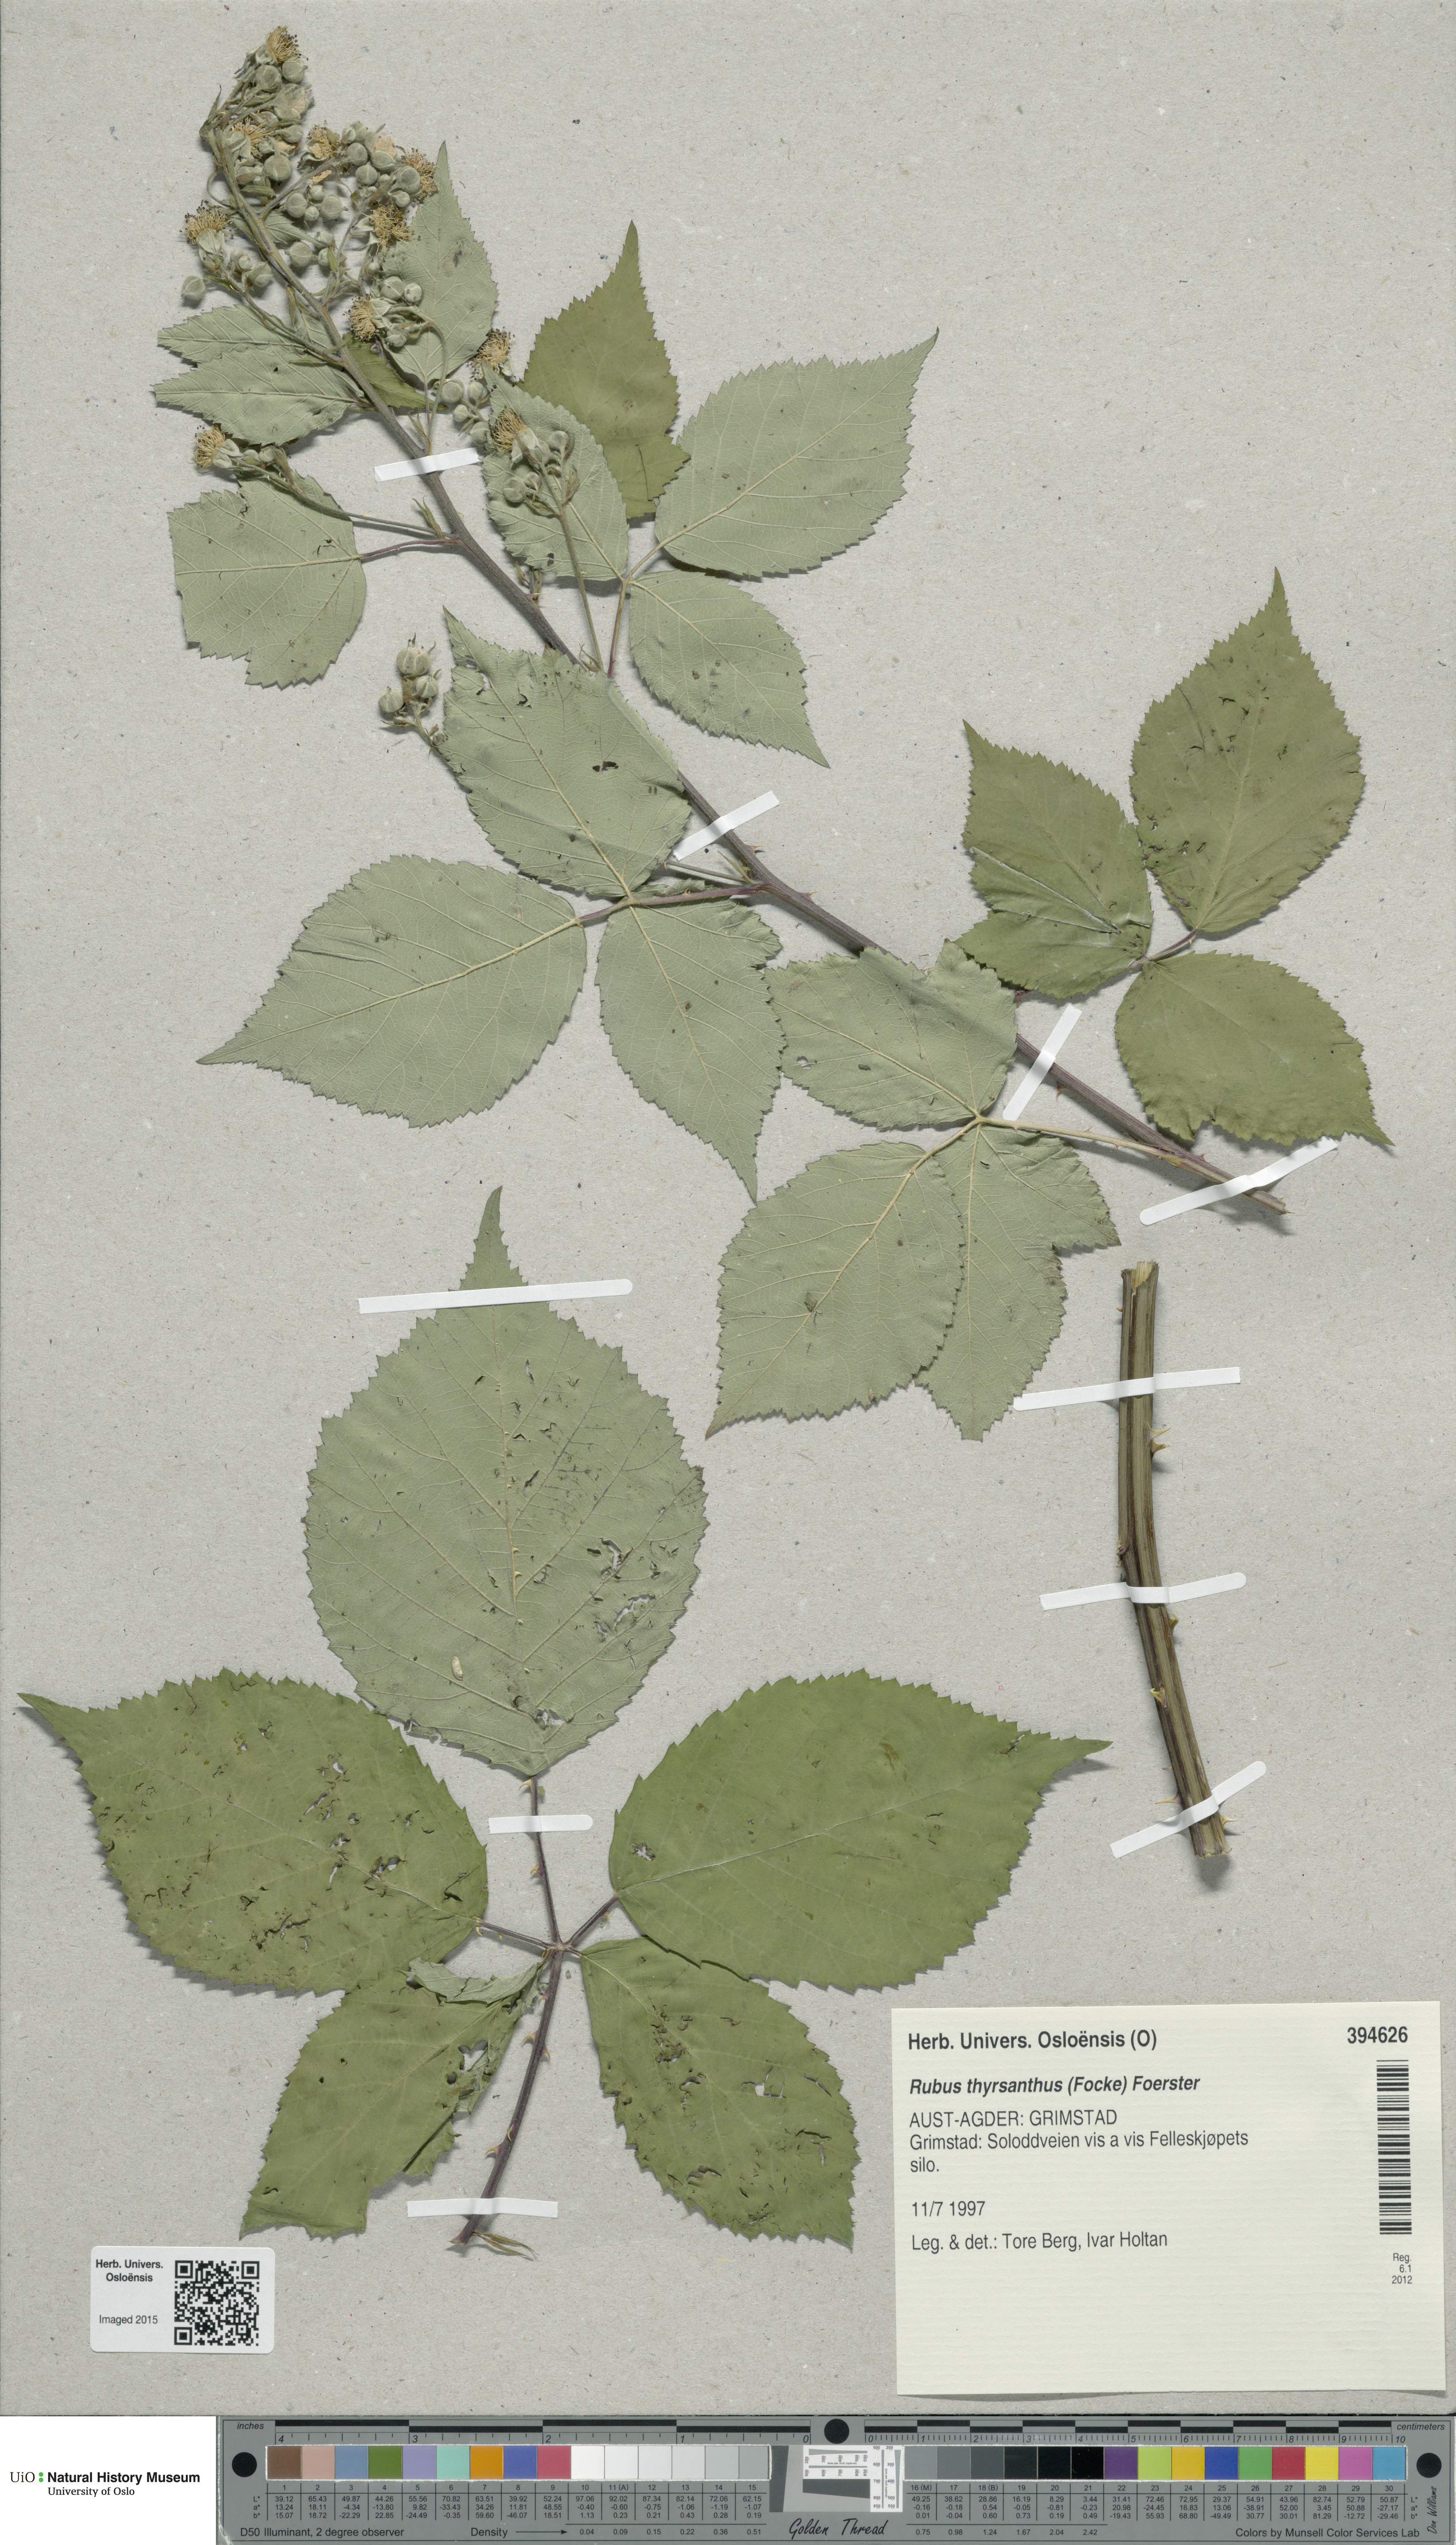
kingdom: Plantae
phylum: Tracheophyta
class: Magnoliopsida
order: Rosales
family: Rosaceae
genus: Rubus
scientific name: Rubus grabowskii
